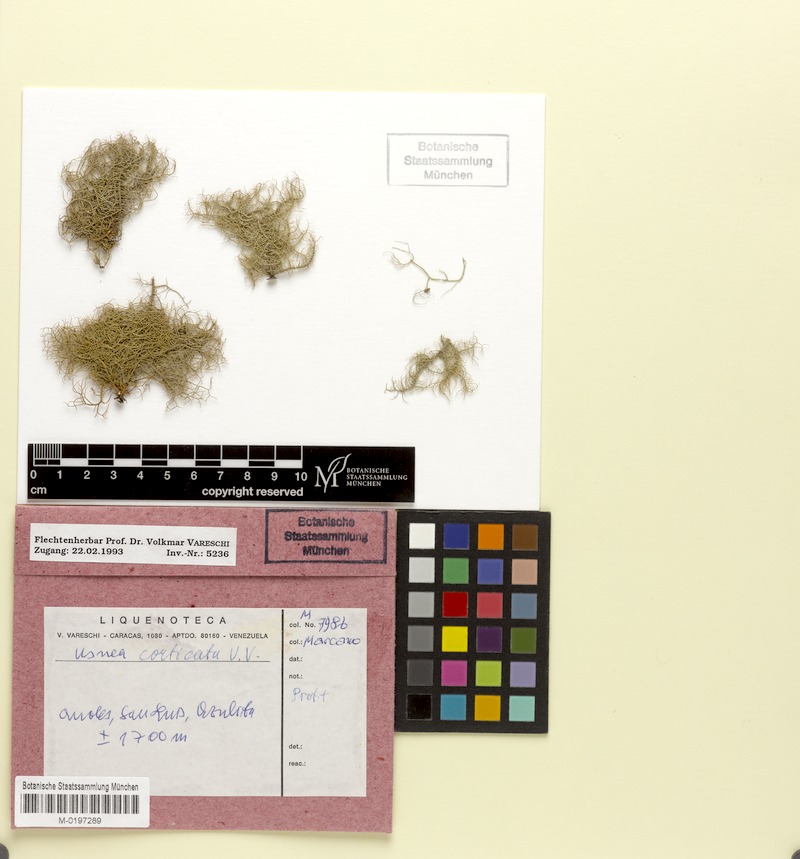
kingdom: Fungi
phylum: Ascomycota
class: Lecanoromycetes
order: Lecanorales
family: Parmeliaceae
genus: Usnea
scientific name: Usnea rubicunda
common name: Red beard lichen
